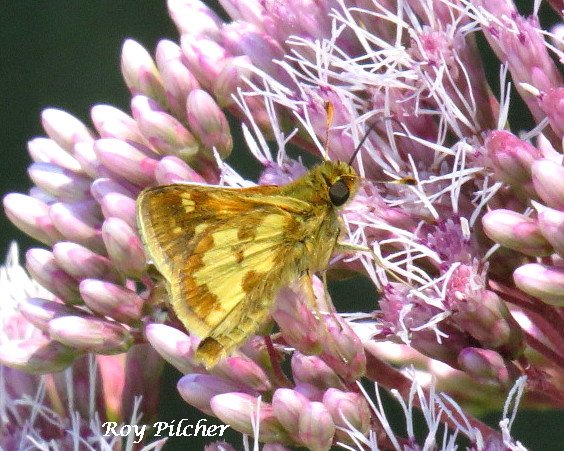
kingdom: Animalia
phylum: Arthropoda
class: Insecta
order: Lepidoptera
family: Hesperiidae
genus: Polites
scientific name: Polites coras
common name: Peck's Skipper
